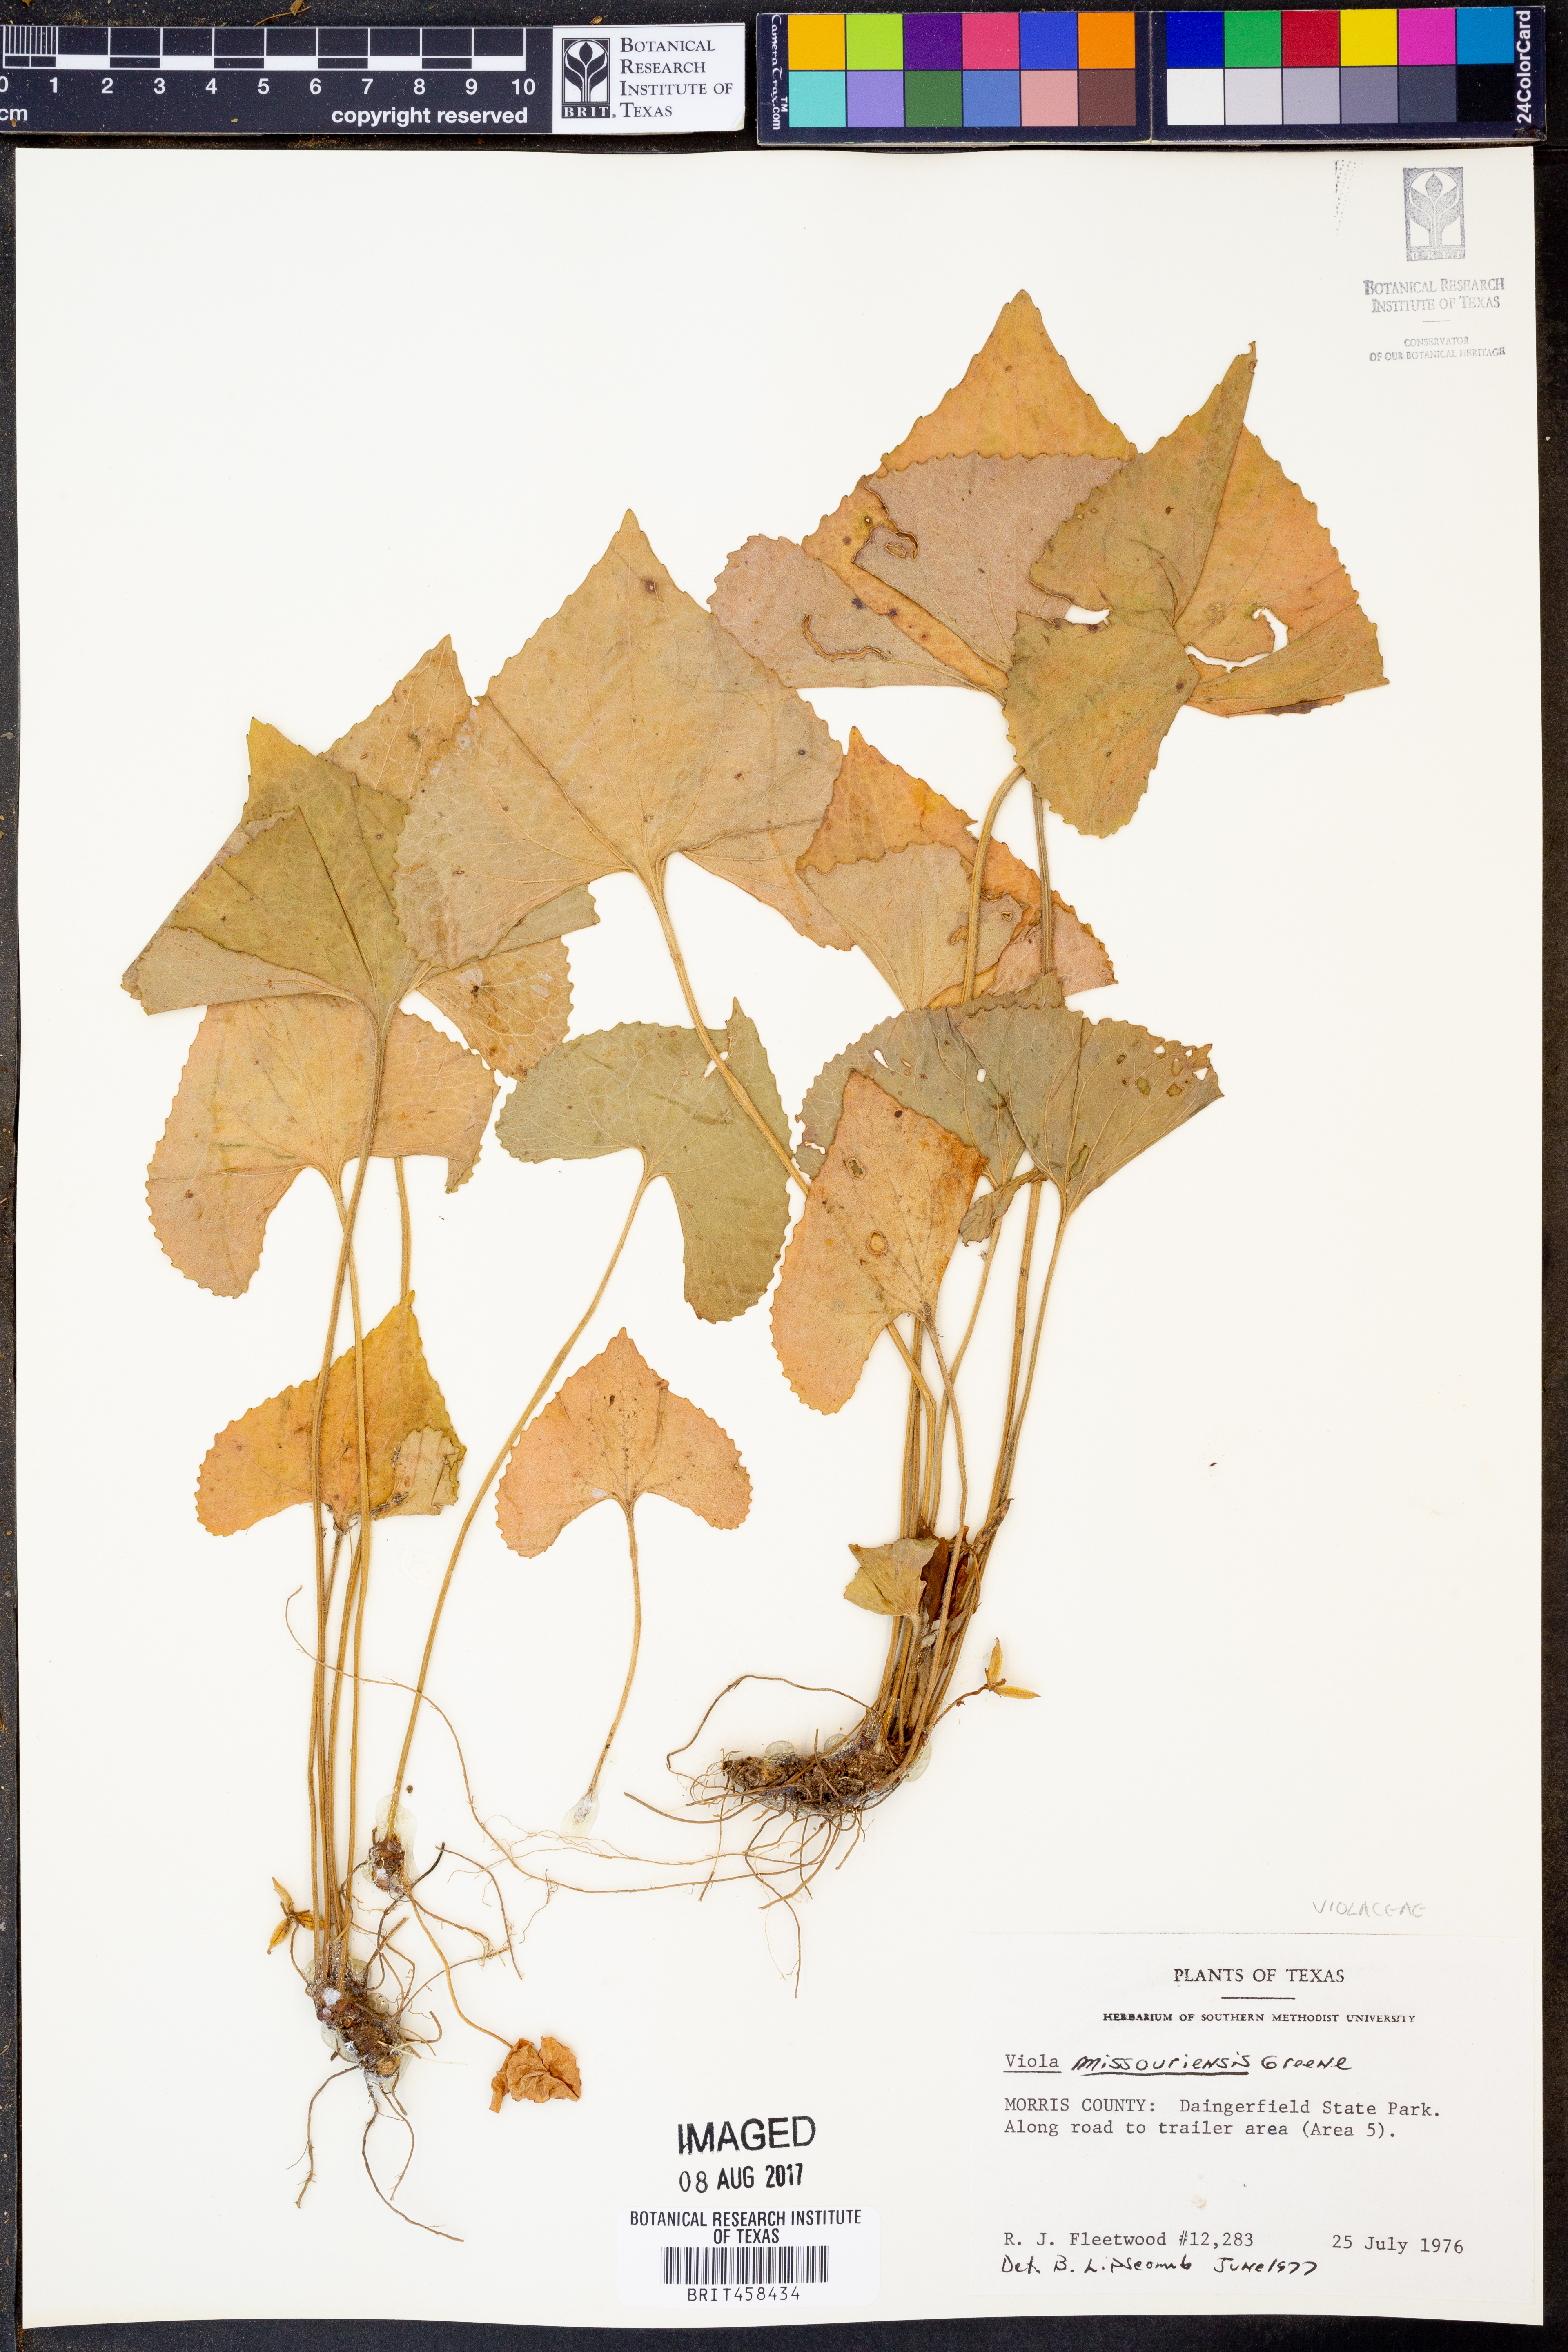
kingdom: Plantae
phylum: Tracheophyta
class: Magnoliopsida
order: Malpighiales
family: Violaceae
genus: Viola
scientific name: Viola missouriensis
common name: Missouri violet
